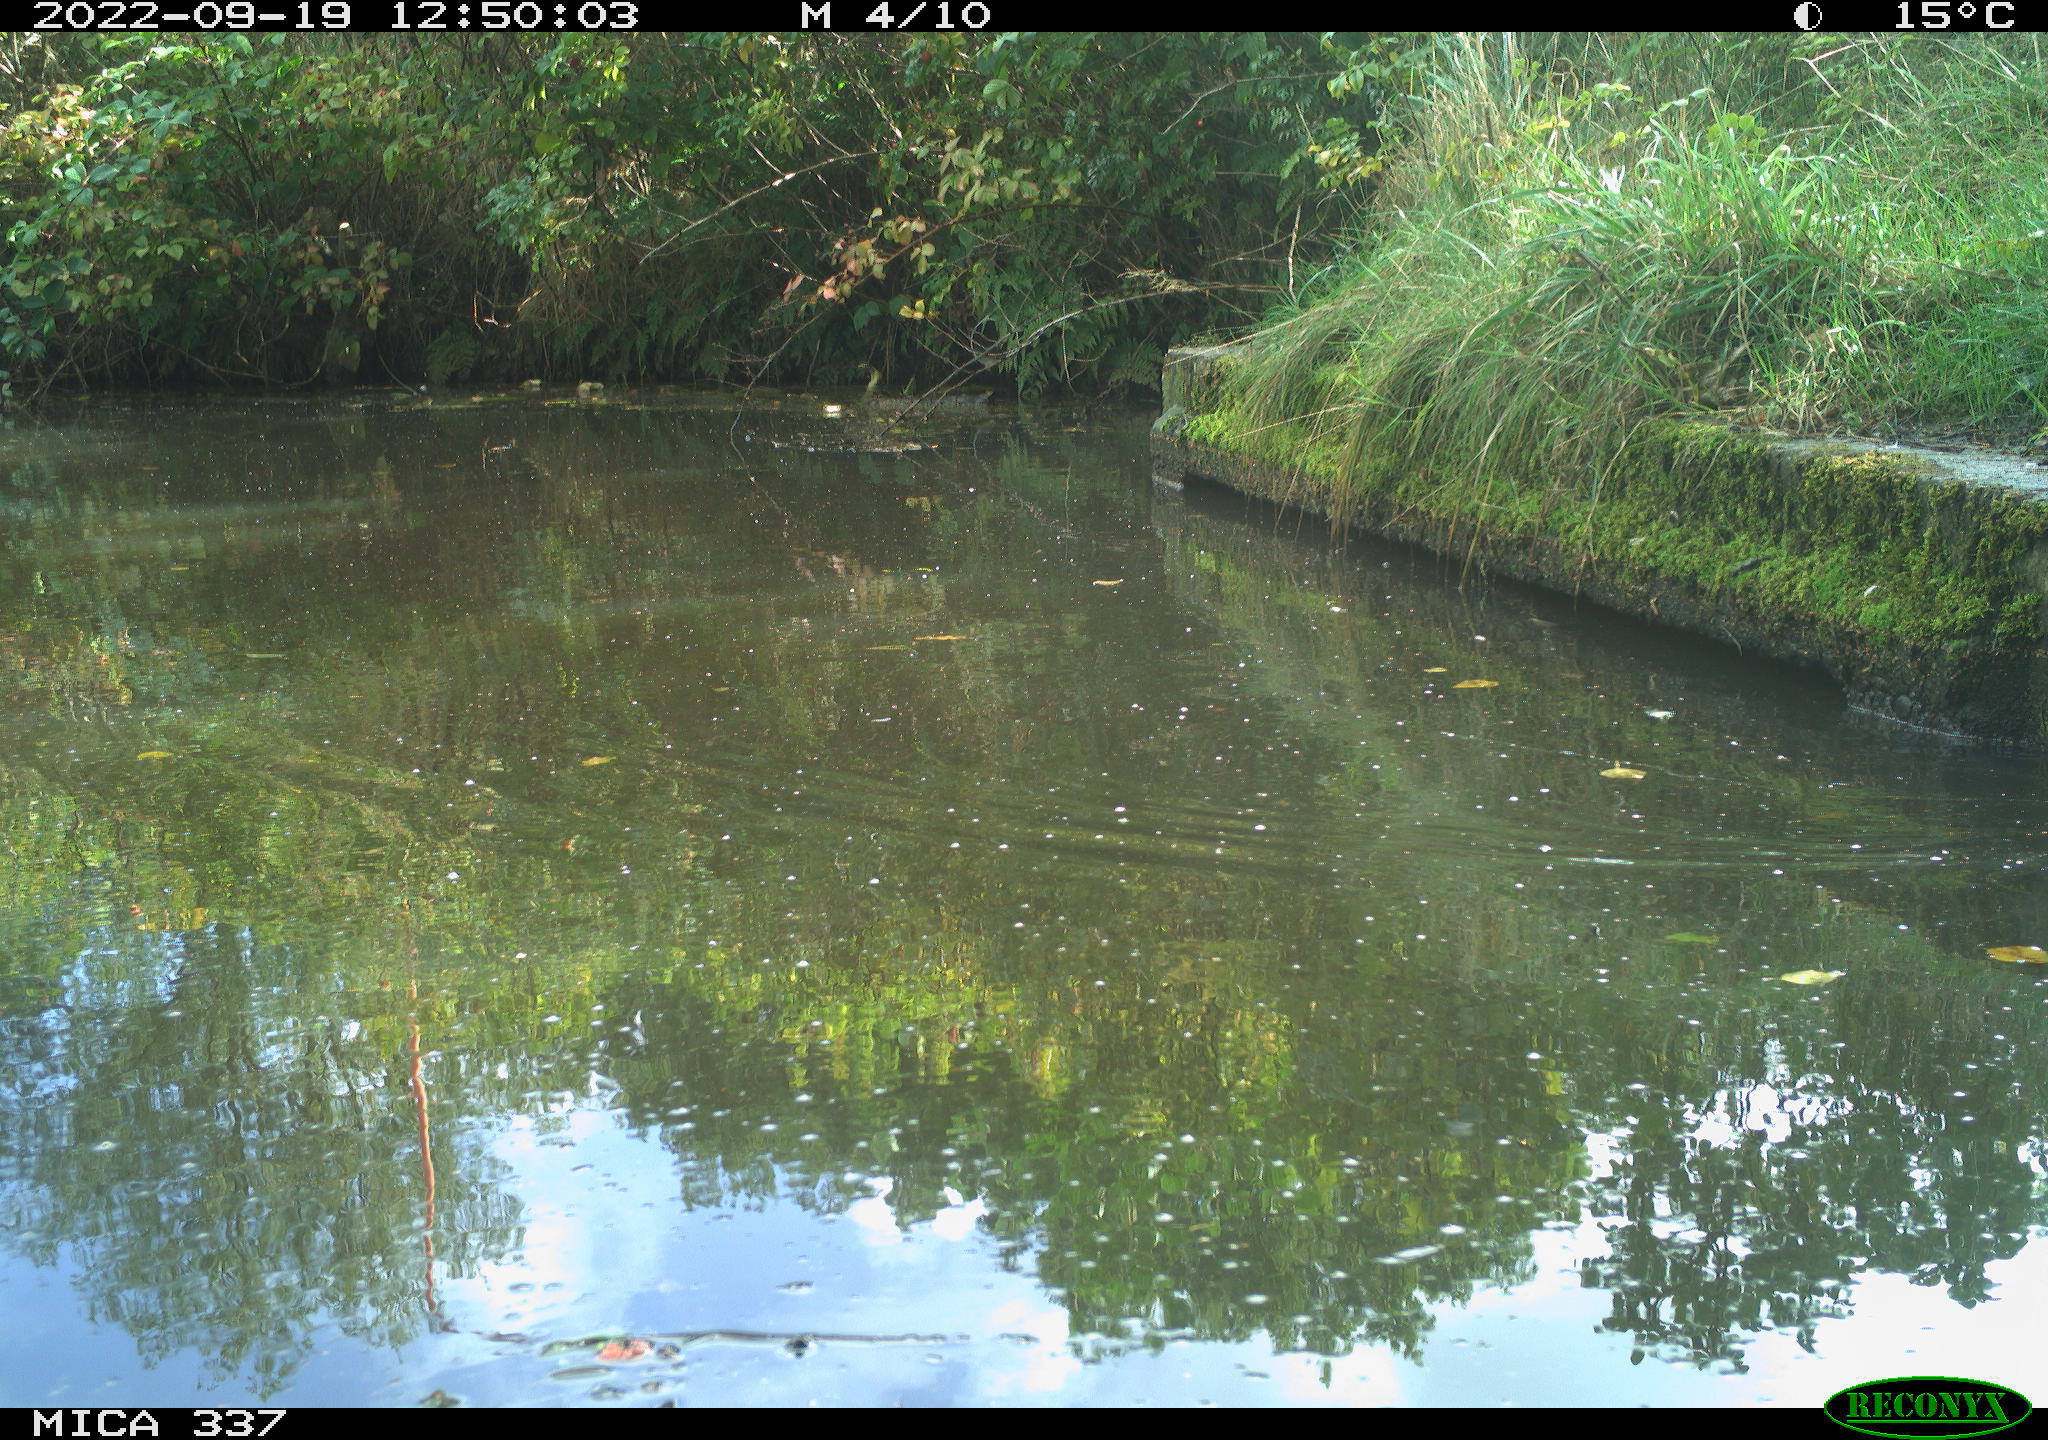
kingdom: Animalia
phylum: Chordata
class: Aves
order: Gruiformes
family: Rallidae
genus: Gallinula
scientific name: Gallinula chloropus
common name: Common moorhen
